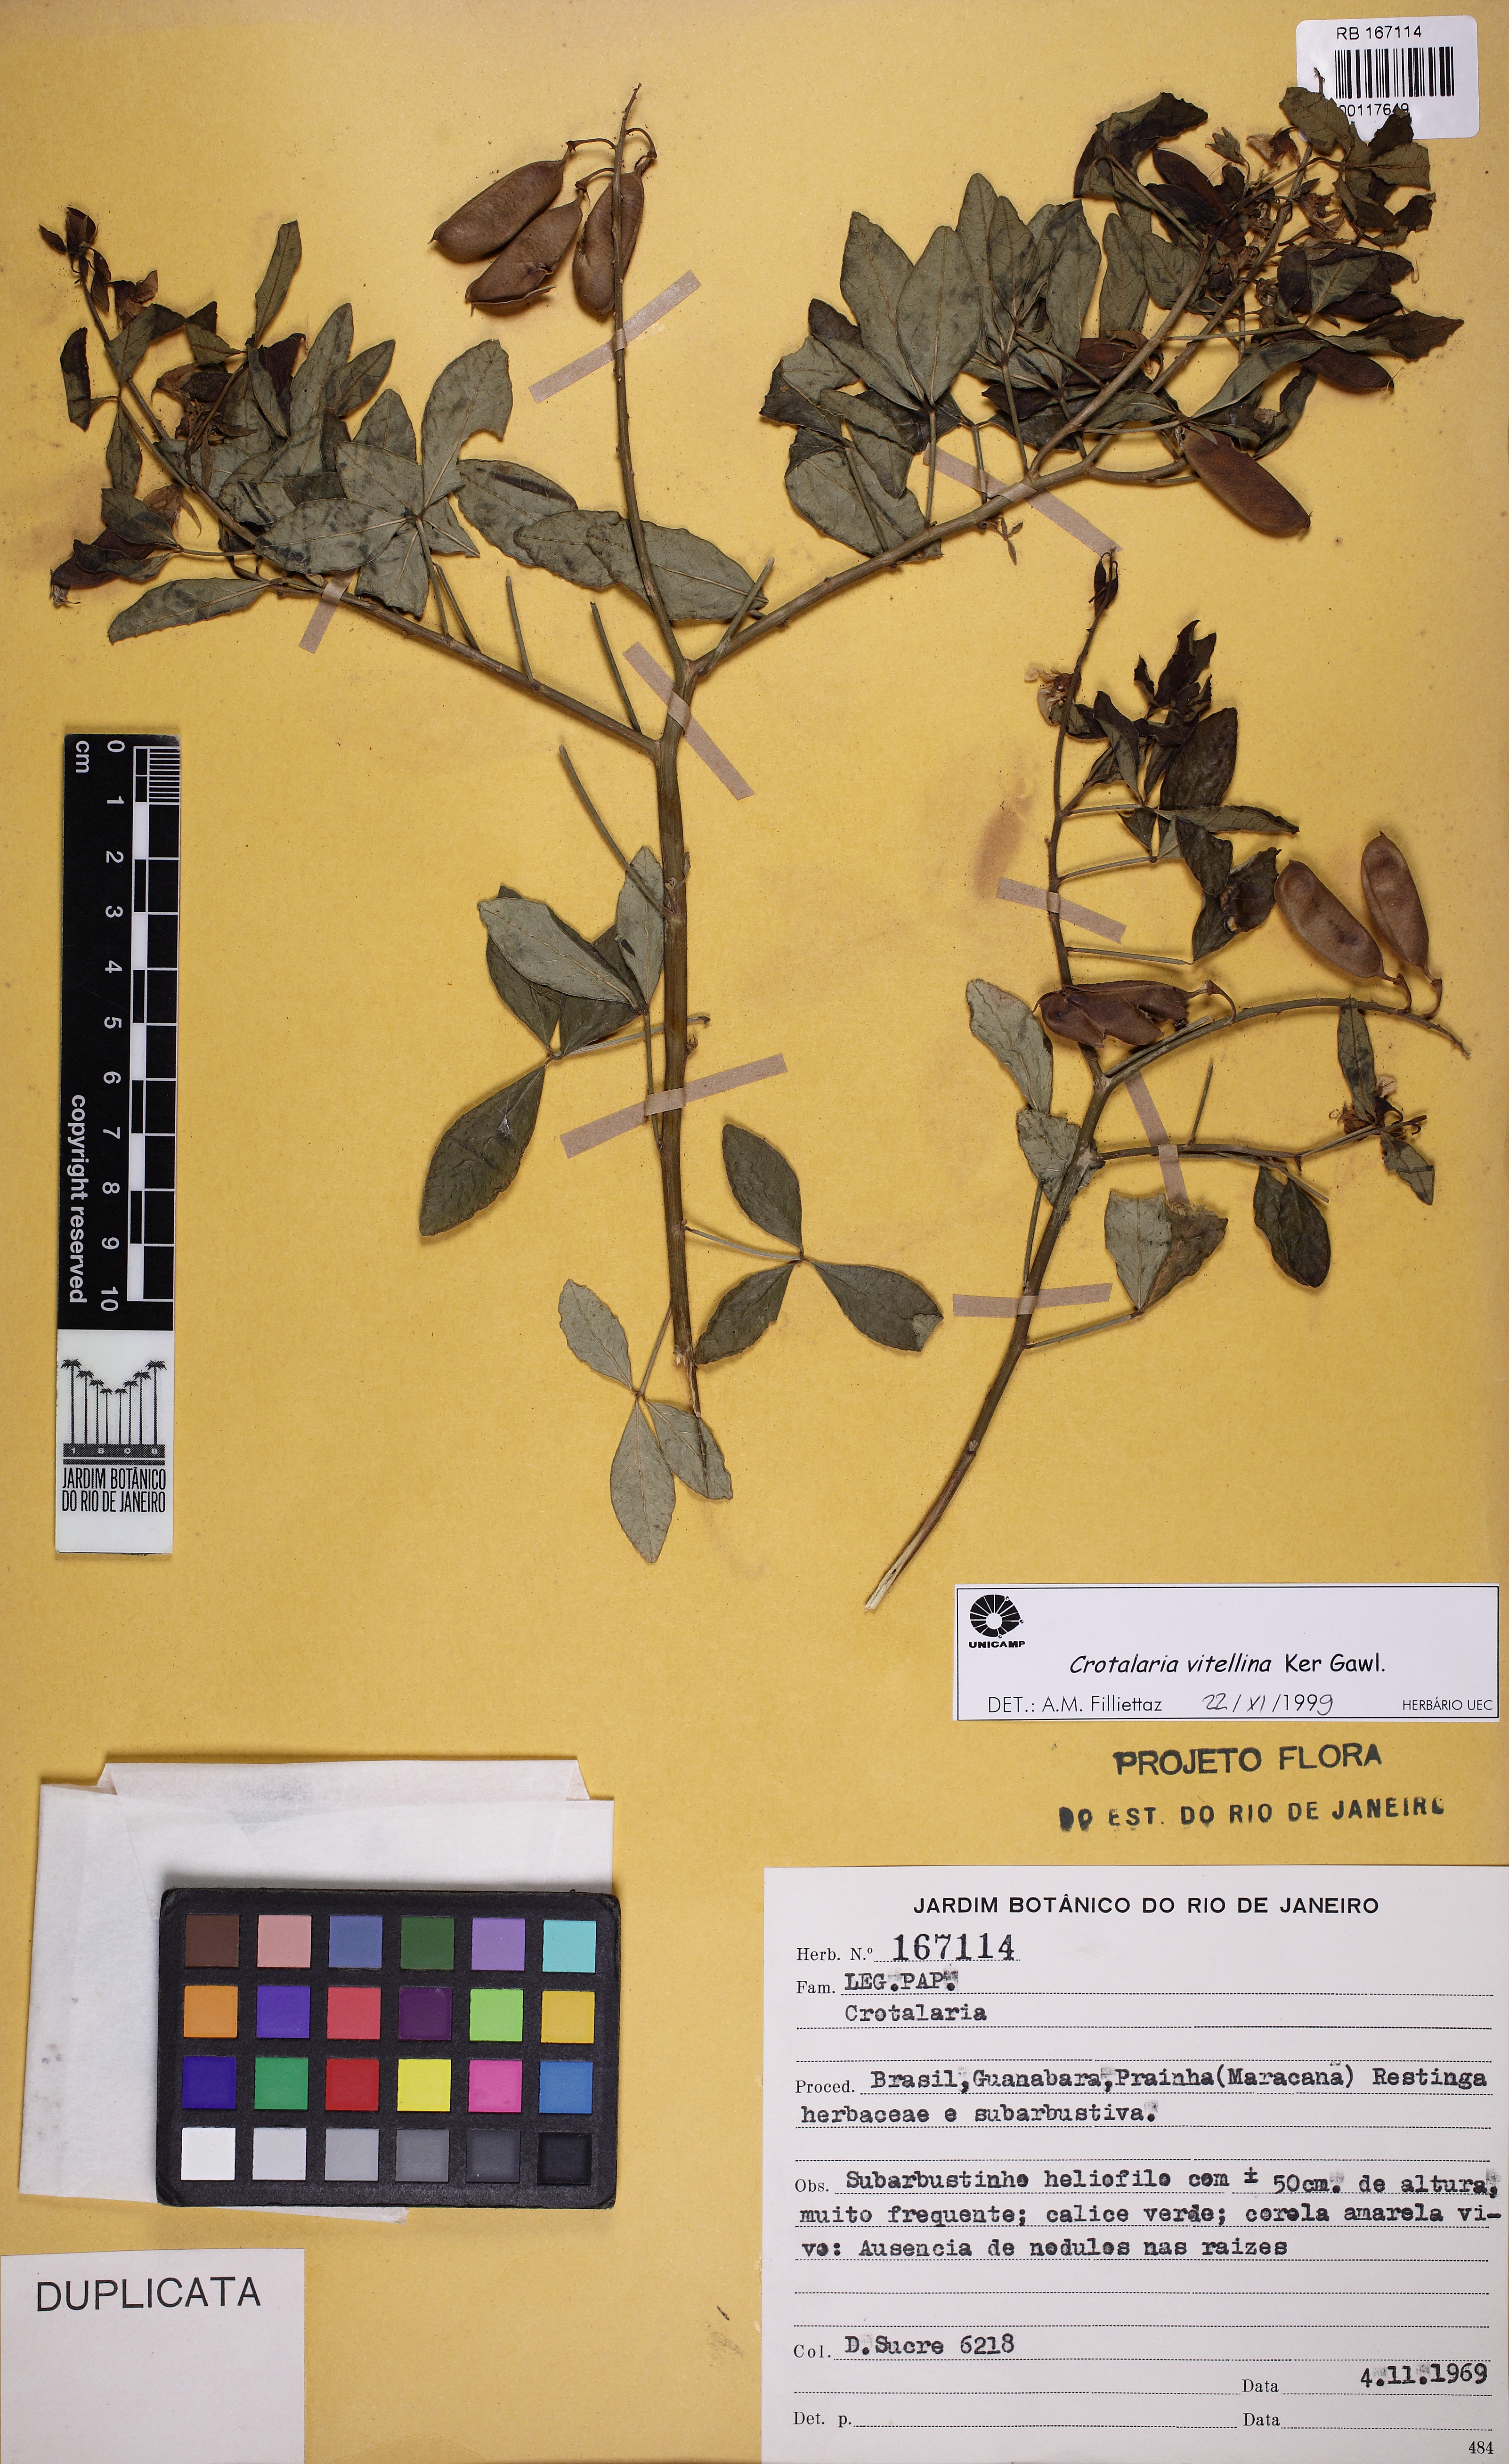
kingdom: Plantae
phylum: Tracheophyta
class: Magnoliopsida
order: Fabales
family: Fabaceae
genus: Crotalaria
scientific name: Crotalaria vitellina
